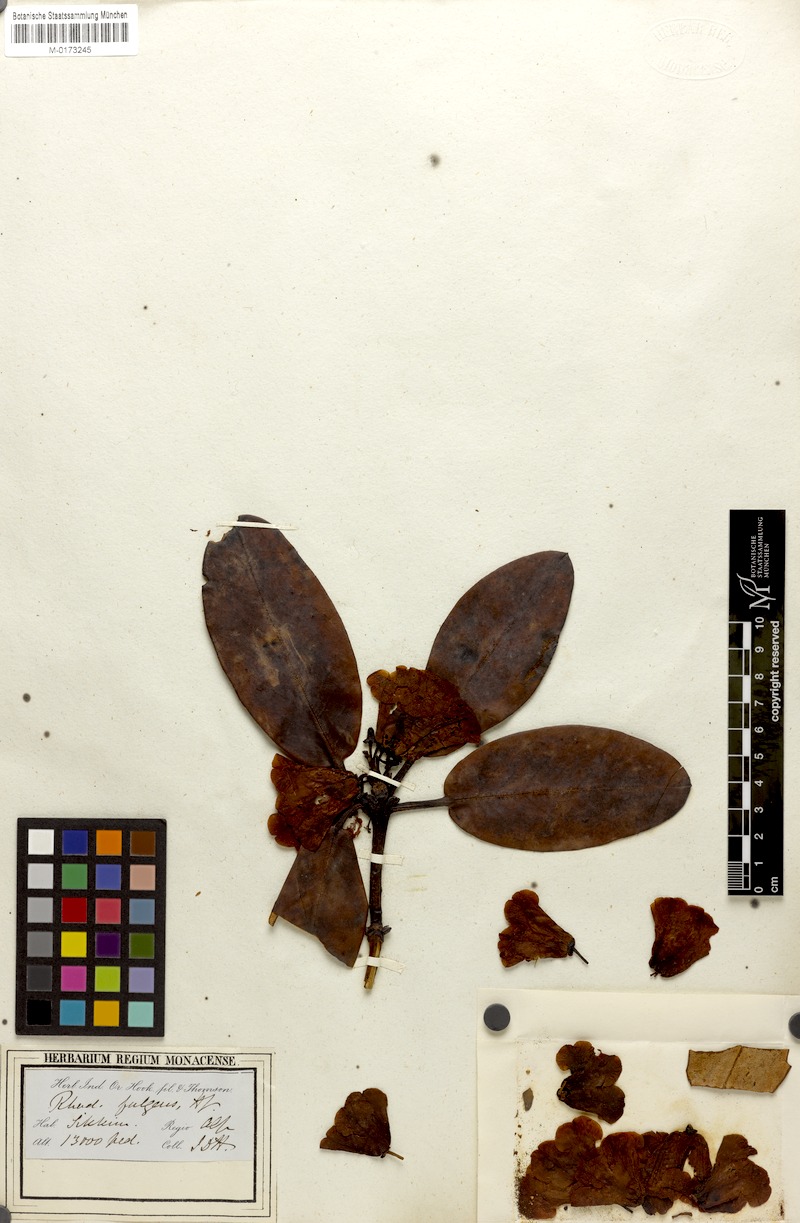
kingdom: Plantae
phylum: Tracheophyta
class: Magnoliopsida
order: Ericales
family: Ericaceae
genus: Rhododendron
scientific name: Rhododendron fulgens
